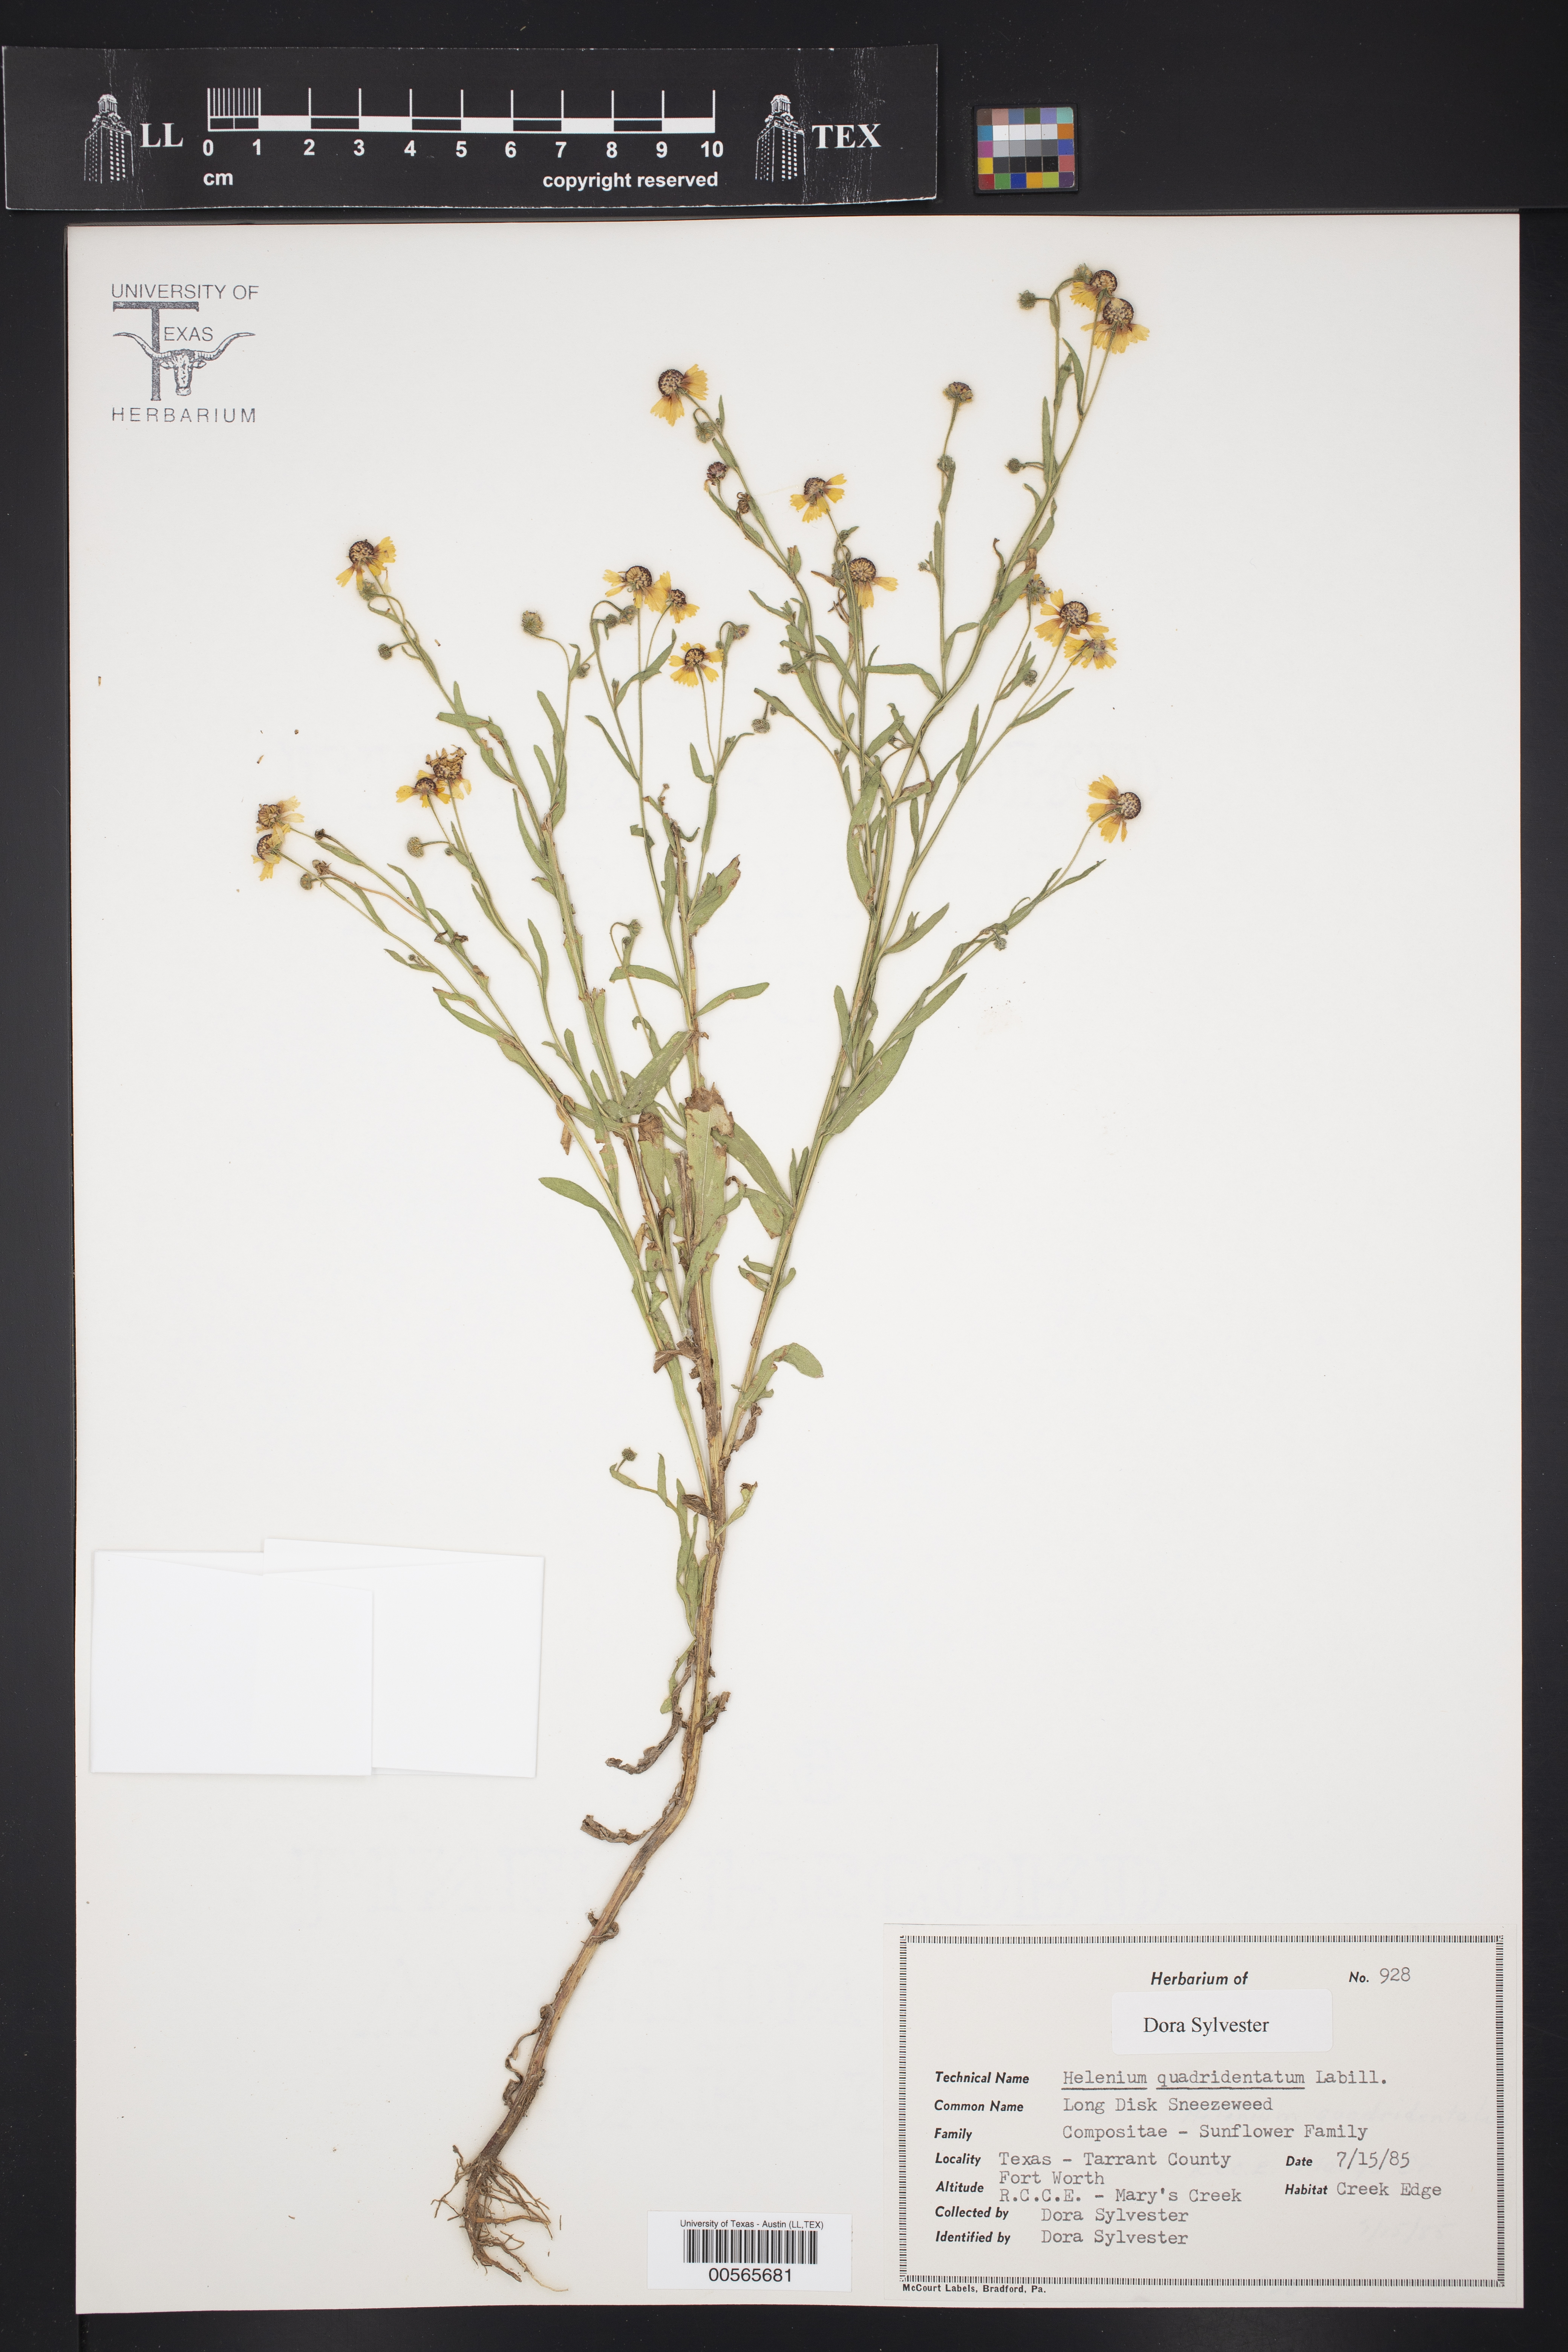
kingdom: Plantae
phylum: Tracheophyta
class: Magnoliopsida
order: Asterales
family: Asteraceae
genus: Helenium
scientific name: Helenium quadridentatum
